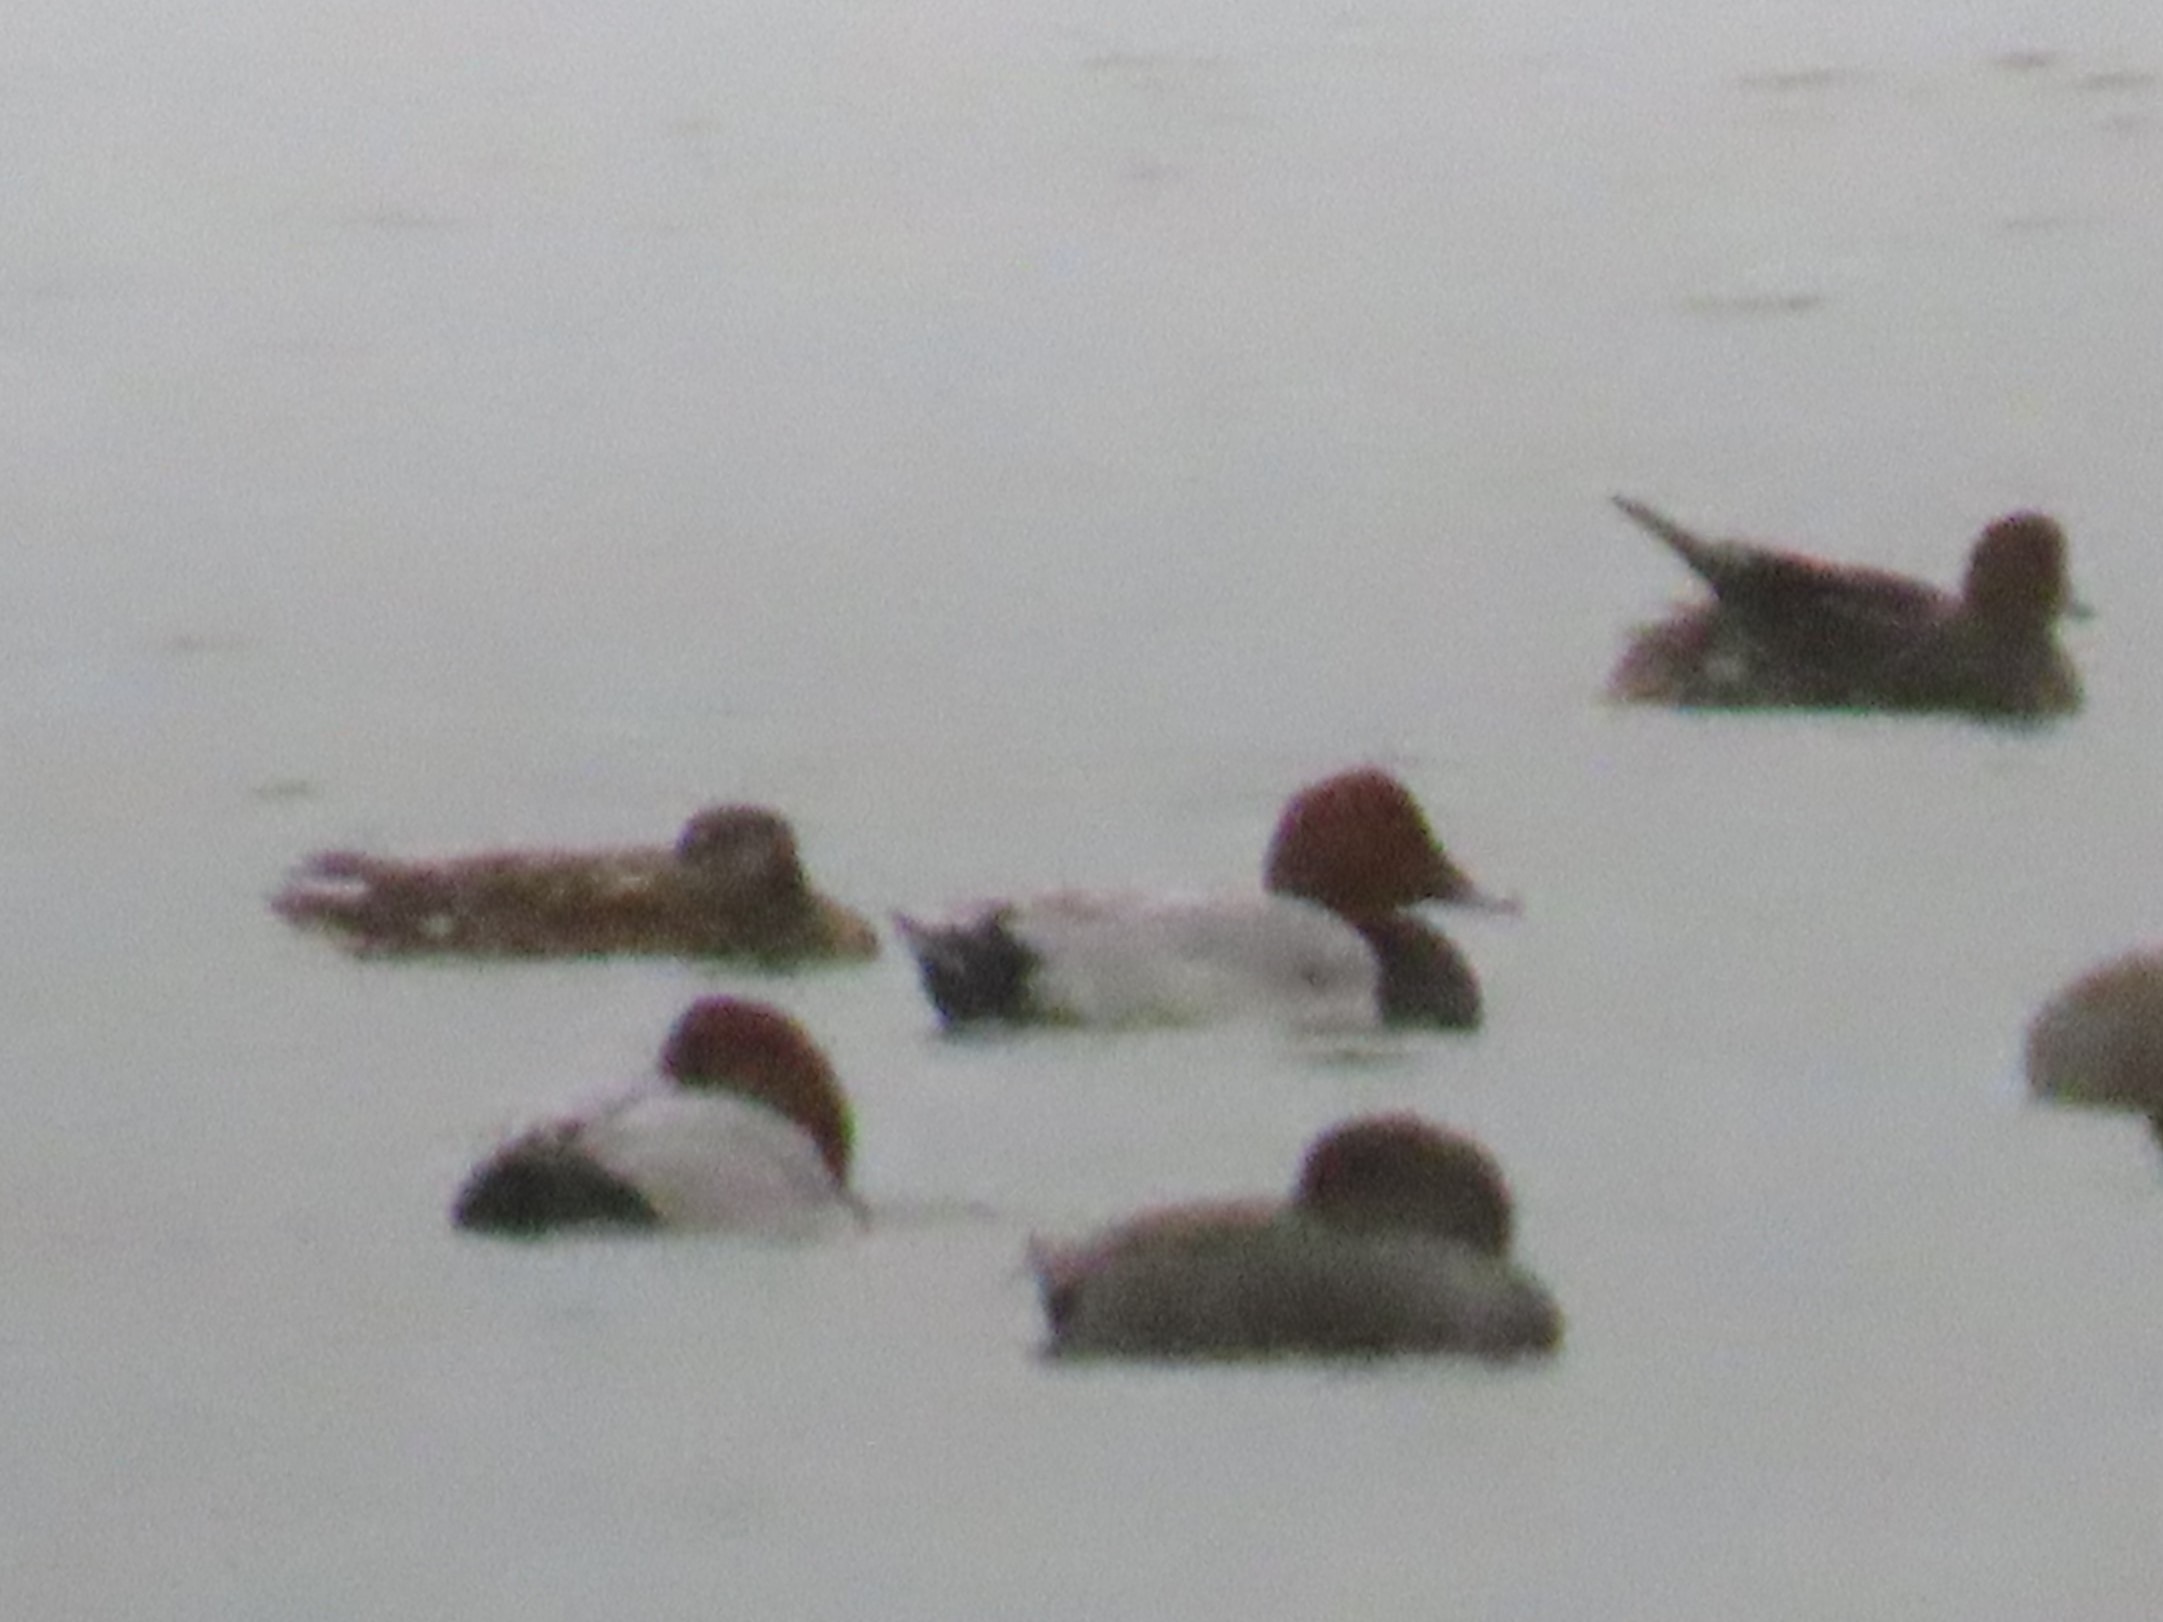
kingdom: Animalia
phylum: Chordata
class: Aves
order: Anseriformes
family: Anatidae
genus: Aythya
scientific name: Aythya ferina
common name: Taffeland
